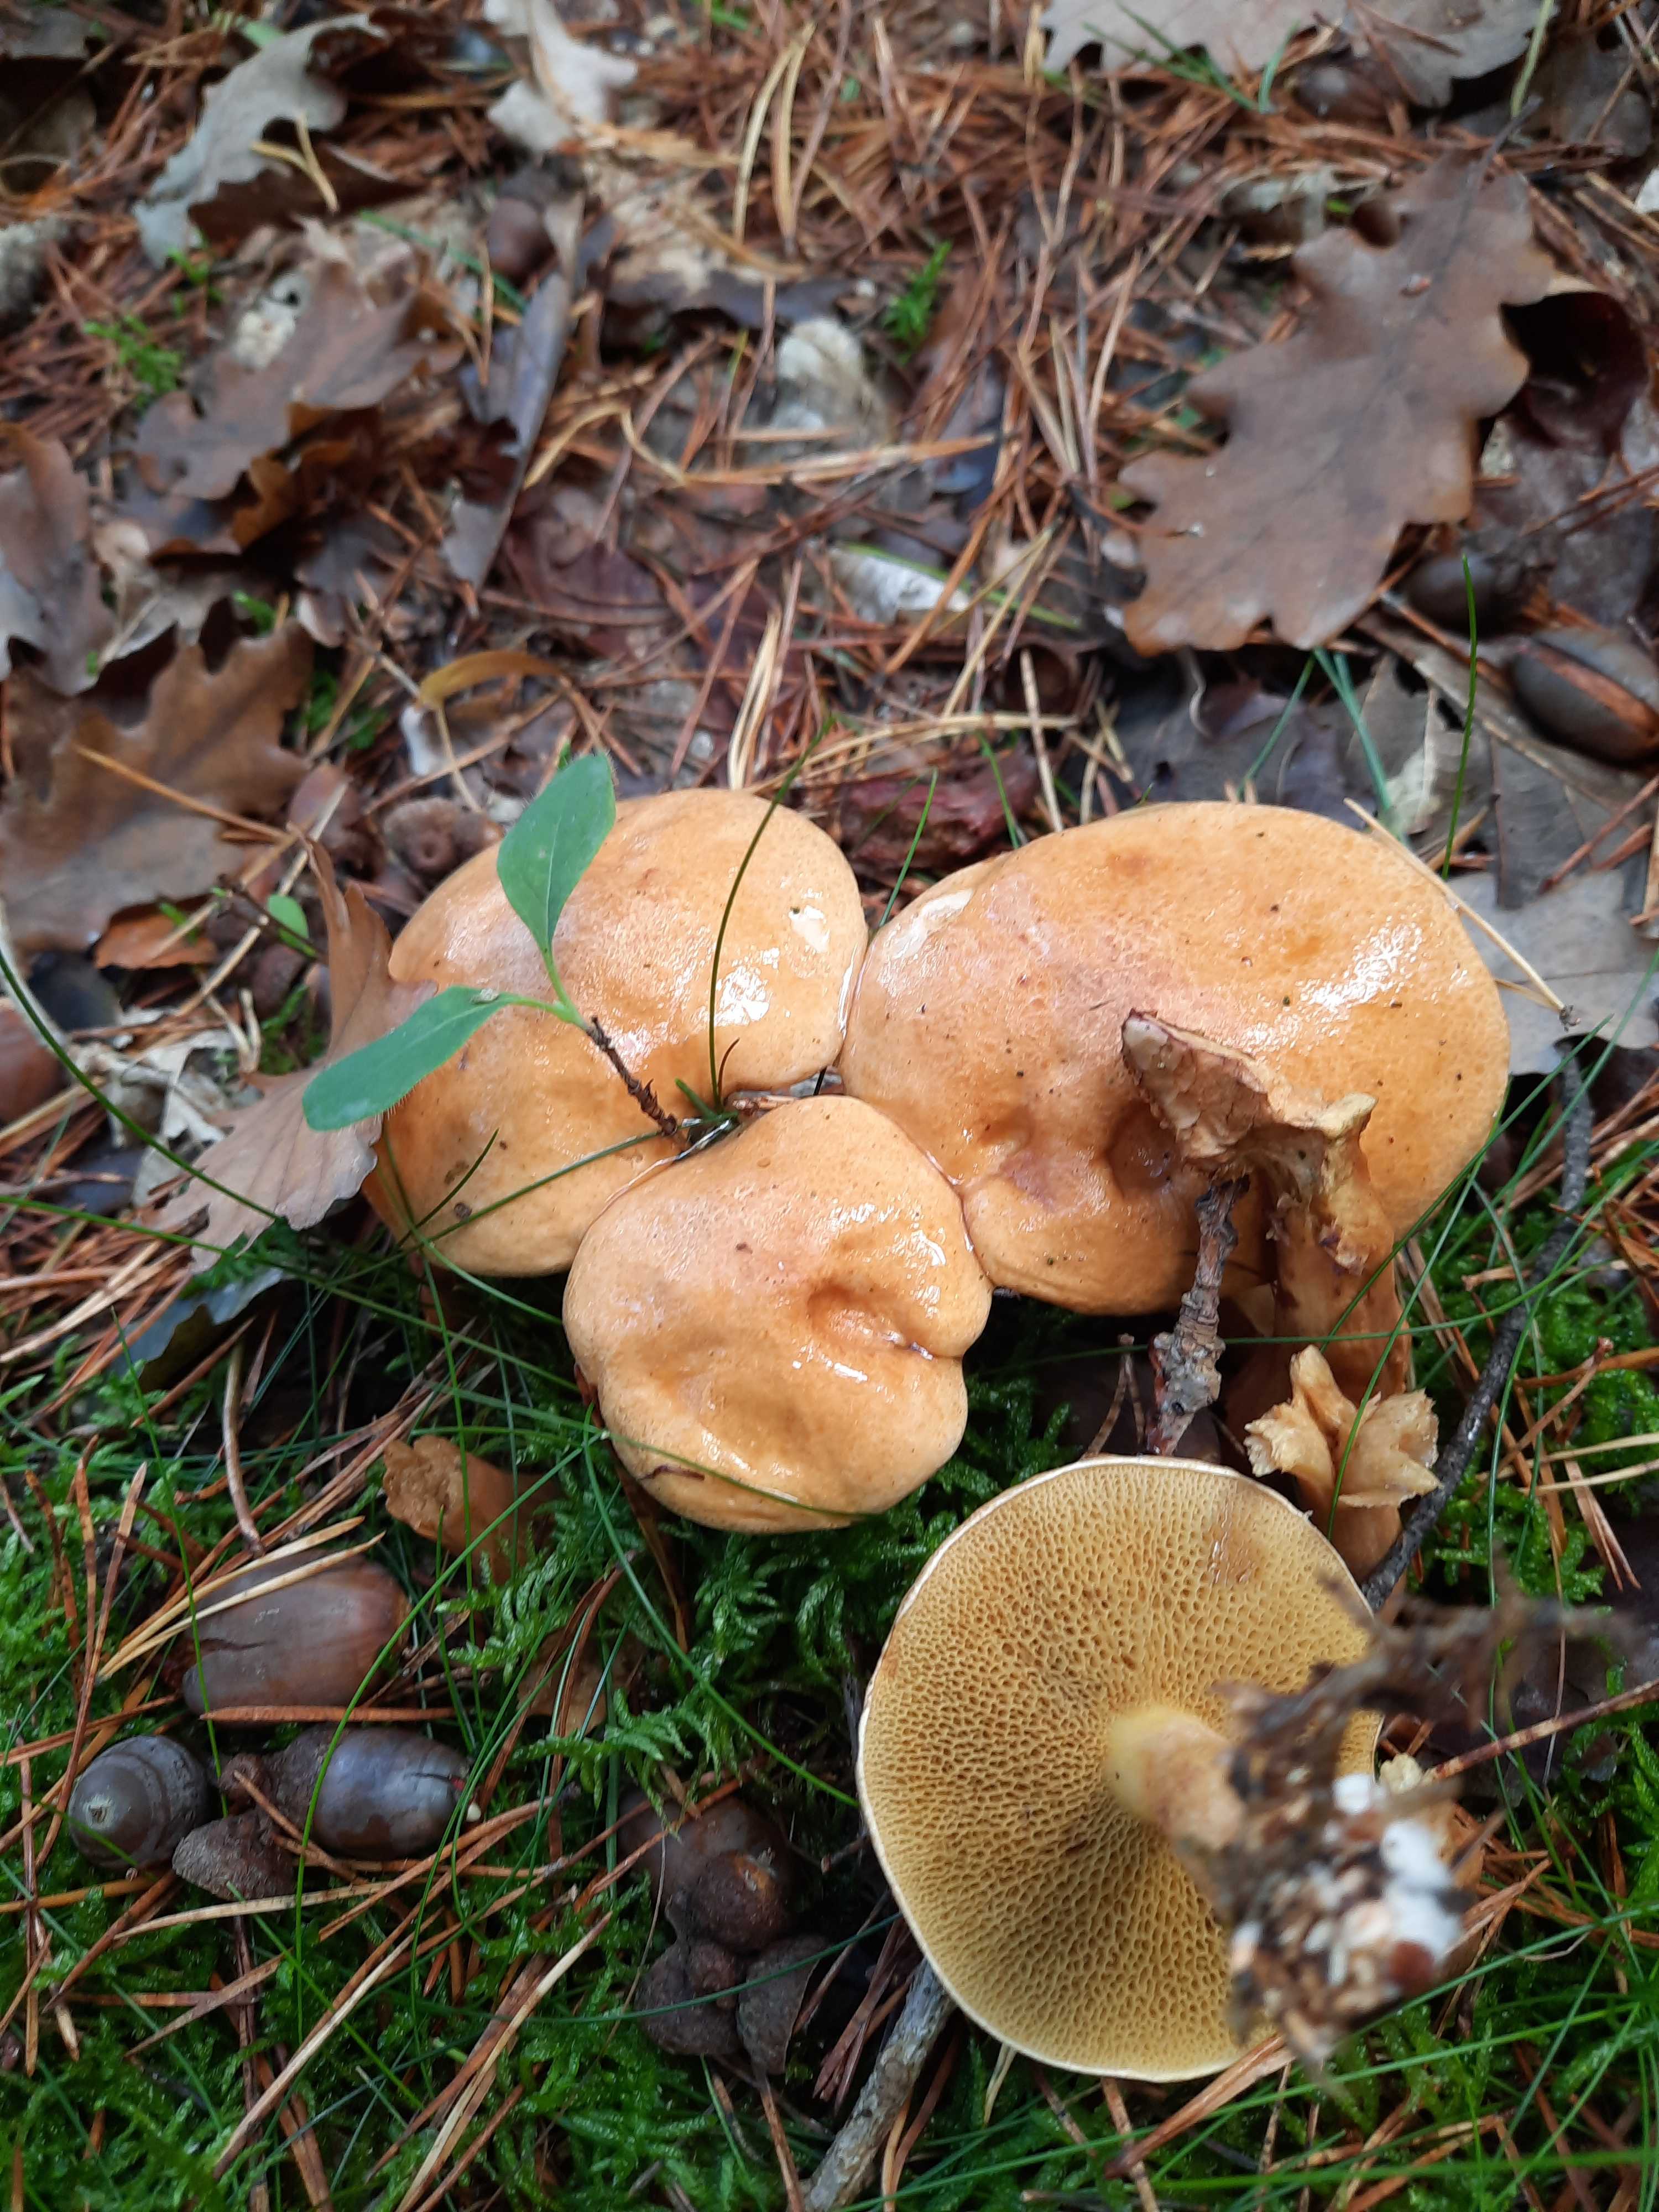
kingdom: Fungi
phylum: Basidiomycota
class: Agaricomycetes
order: Boletales
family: Suillaceae
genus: Suillus
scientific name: Suillus bovinus
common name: grovporet slimrørhat
